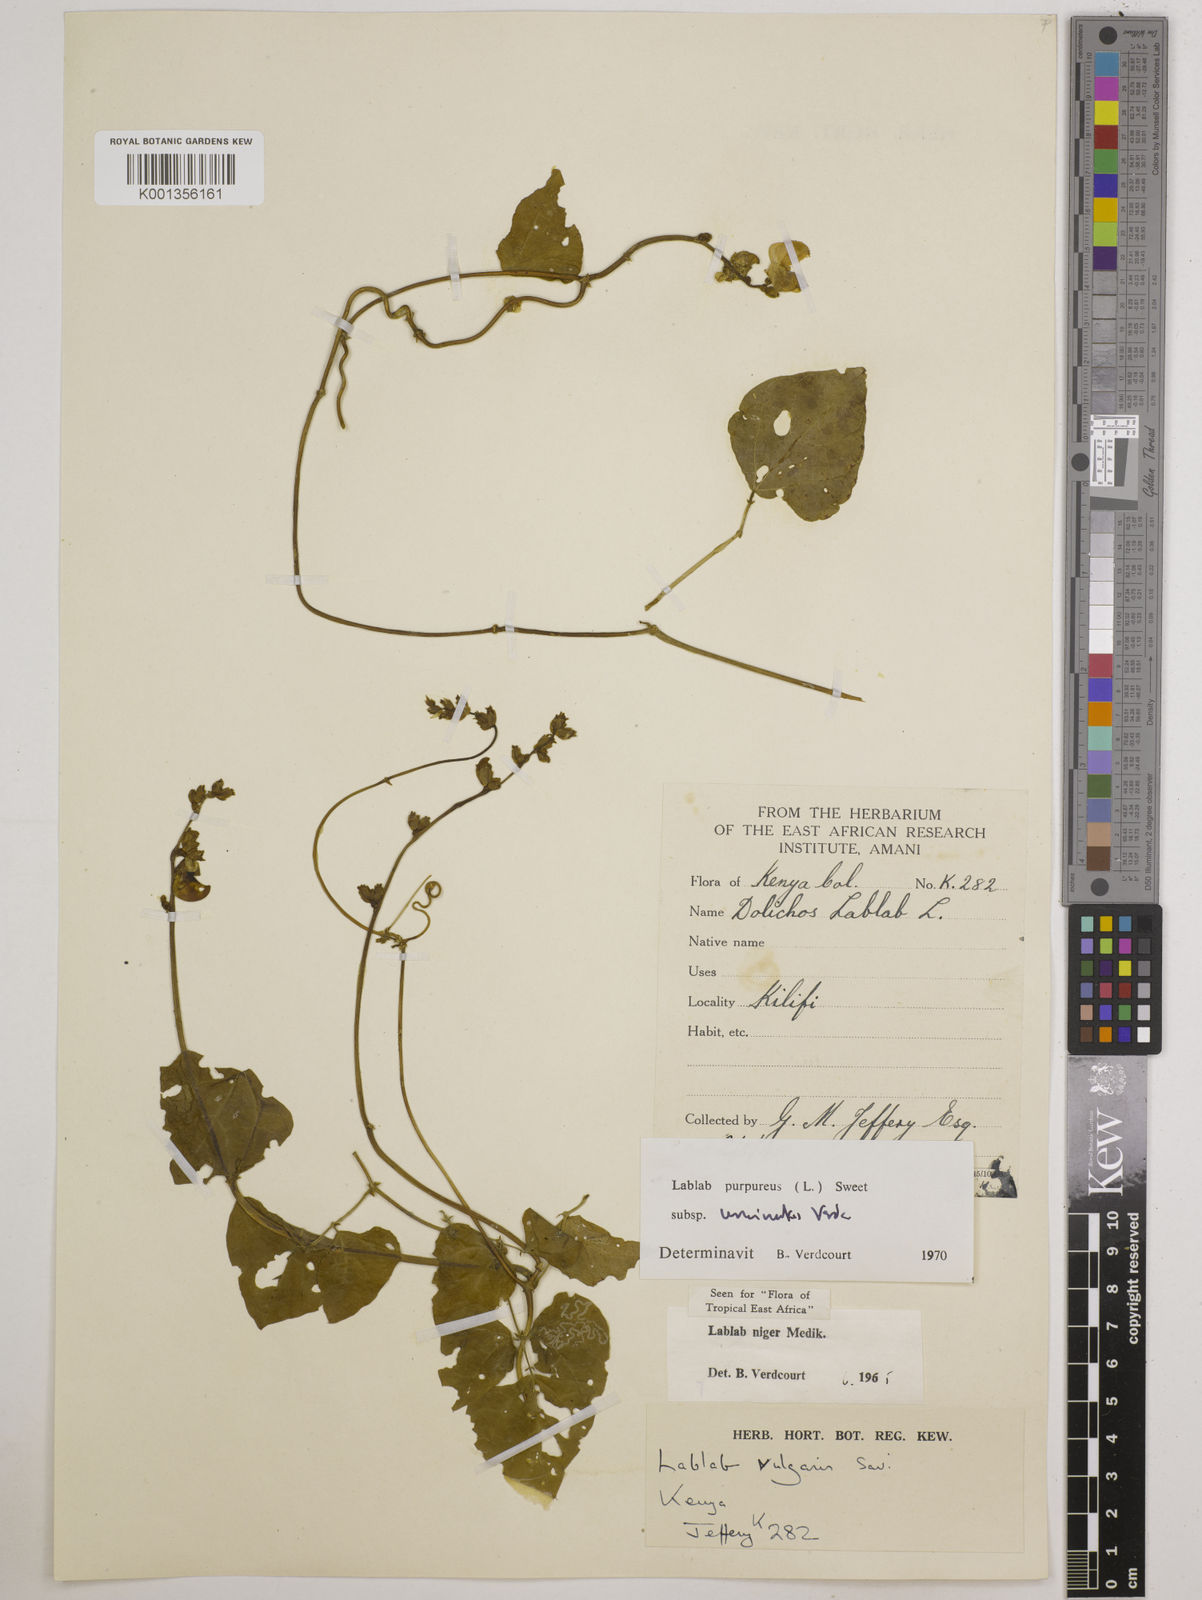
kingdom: Plantae
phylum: Tracheophyta
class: Magnoliopsida
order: Fabales
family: Fabaceae
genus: Lablab
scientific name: Lablab purpureus
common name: Lablab-bean
